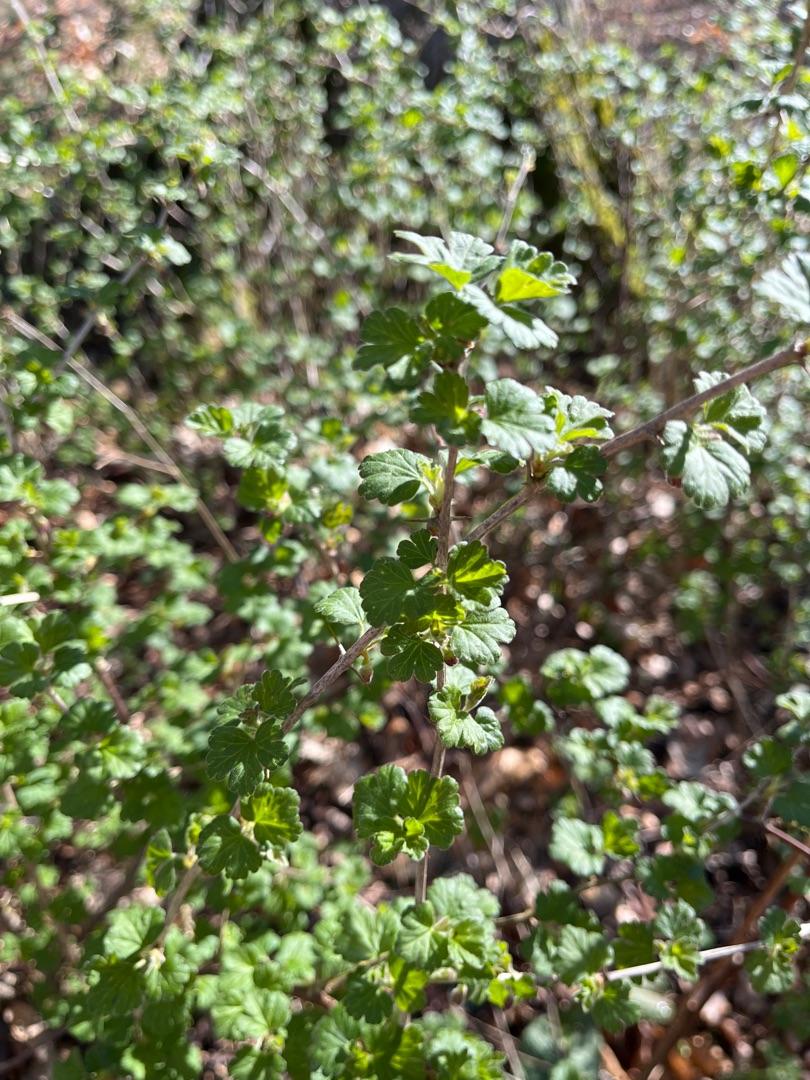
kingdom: Plantae
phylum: Tracheophyta
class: Magnoliopsida
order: Saxifragales
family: Grossulariaceae
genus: Ribes
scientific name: Ribes uva-crispa
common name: Stikkelsbær
